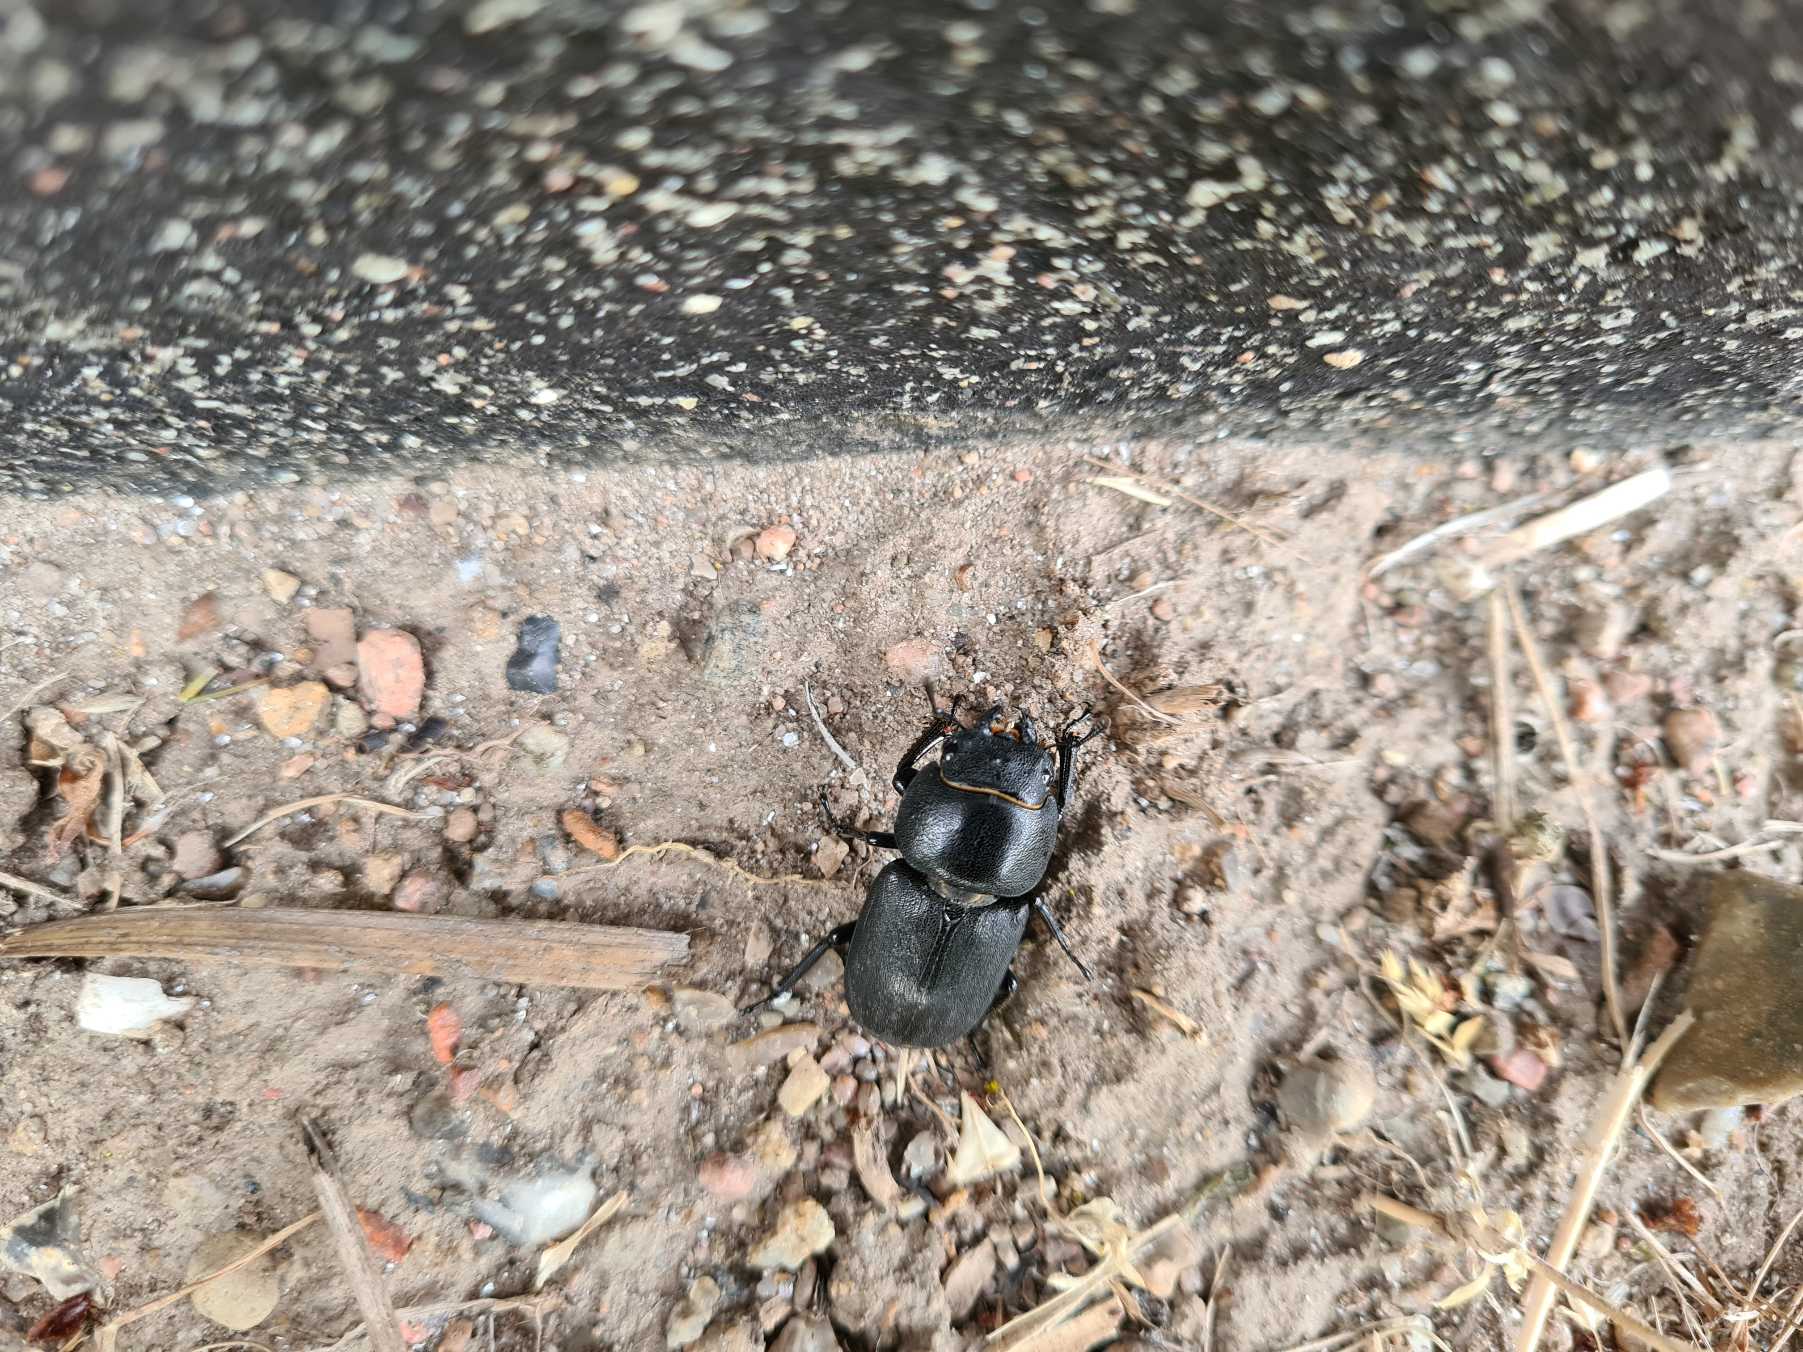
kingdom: Animalia
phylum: Arthropoda
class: Insecta
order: Coleoptera
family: Lucanidae
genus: Dorcus
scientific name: Dorcus parallelipipedus
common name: Bøghjort
